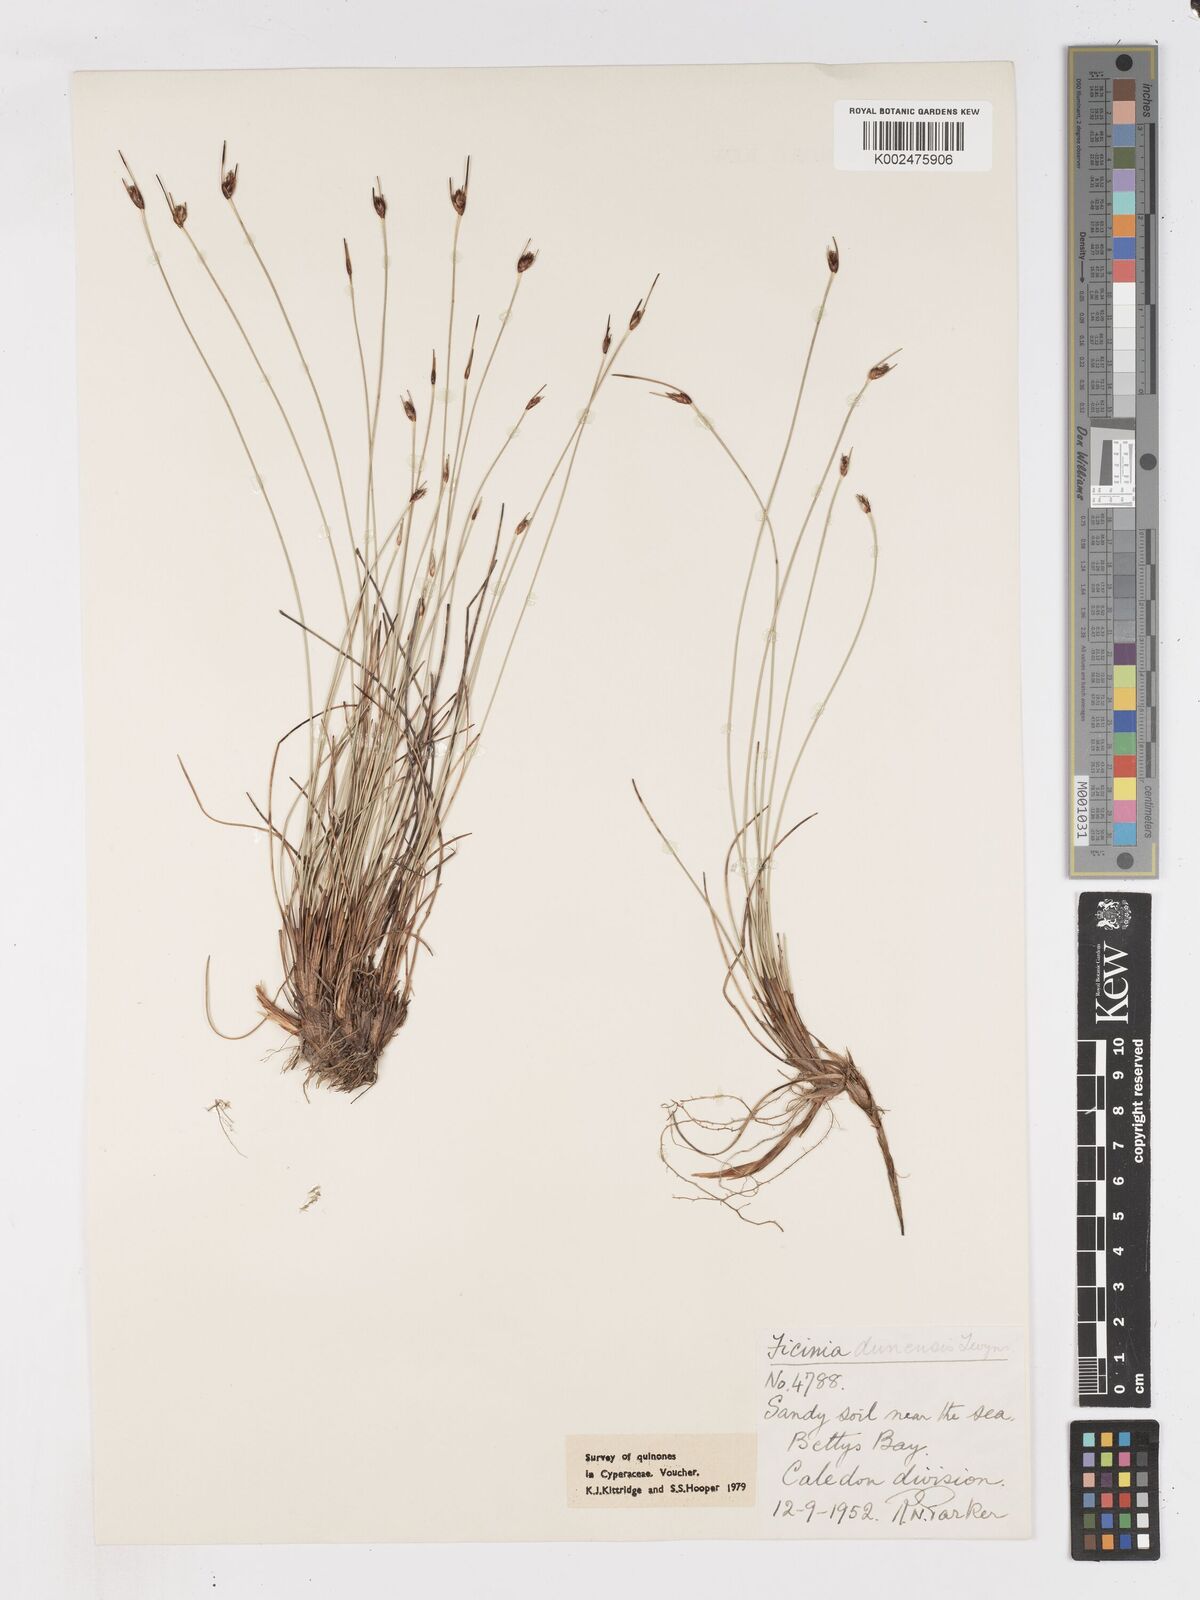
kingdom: Plantae
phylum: Tracheophyta
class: Liliopsida
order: Poales
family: Cyperaceae
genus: Ficinia
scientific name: Ficinia dunensis
